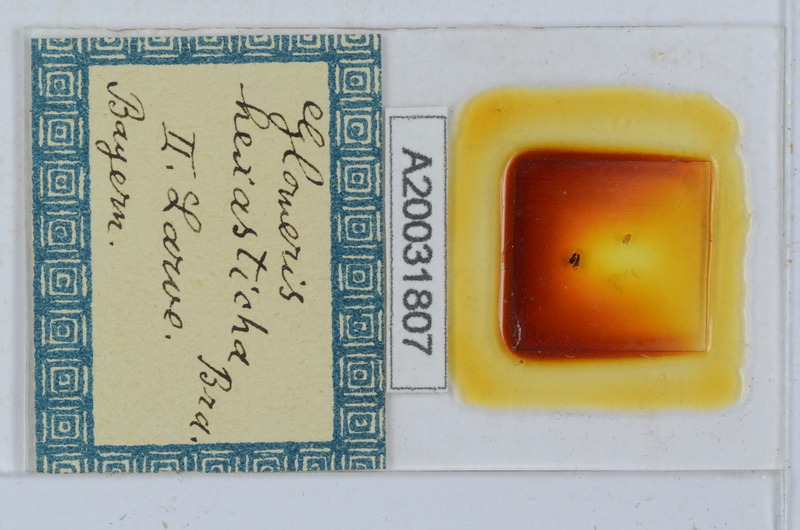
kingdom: Animalia
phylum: Arthropoda
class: Diplopoda
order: Glomerida
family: Glomeridae
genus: Glomeris
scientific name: Glomeris hexasticha
